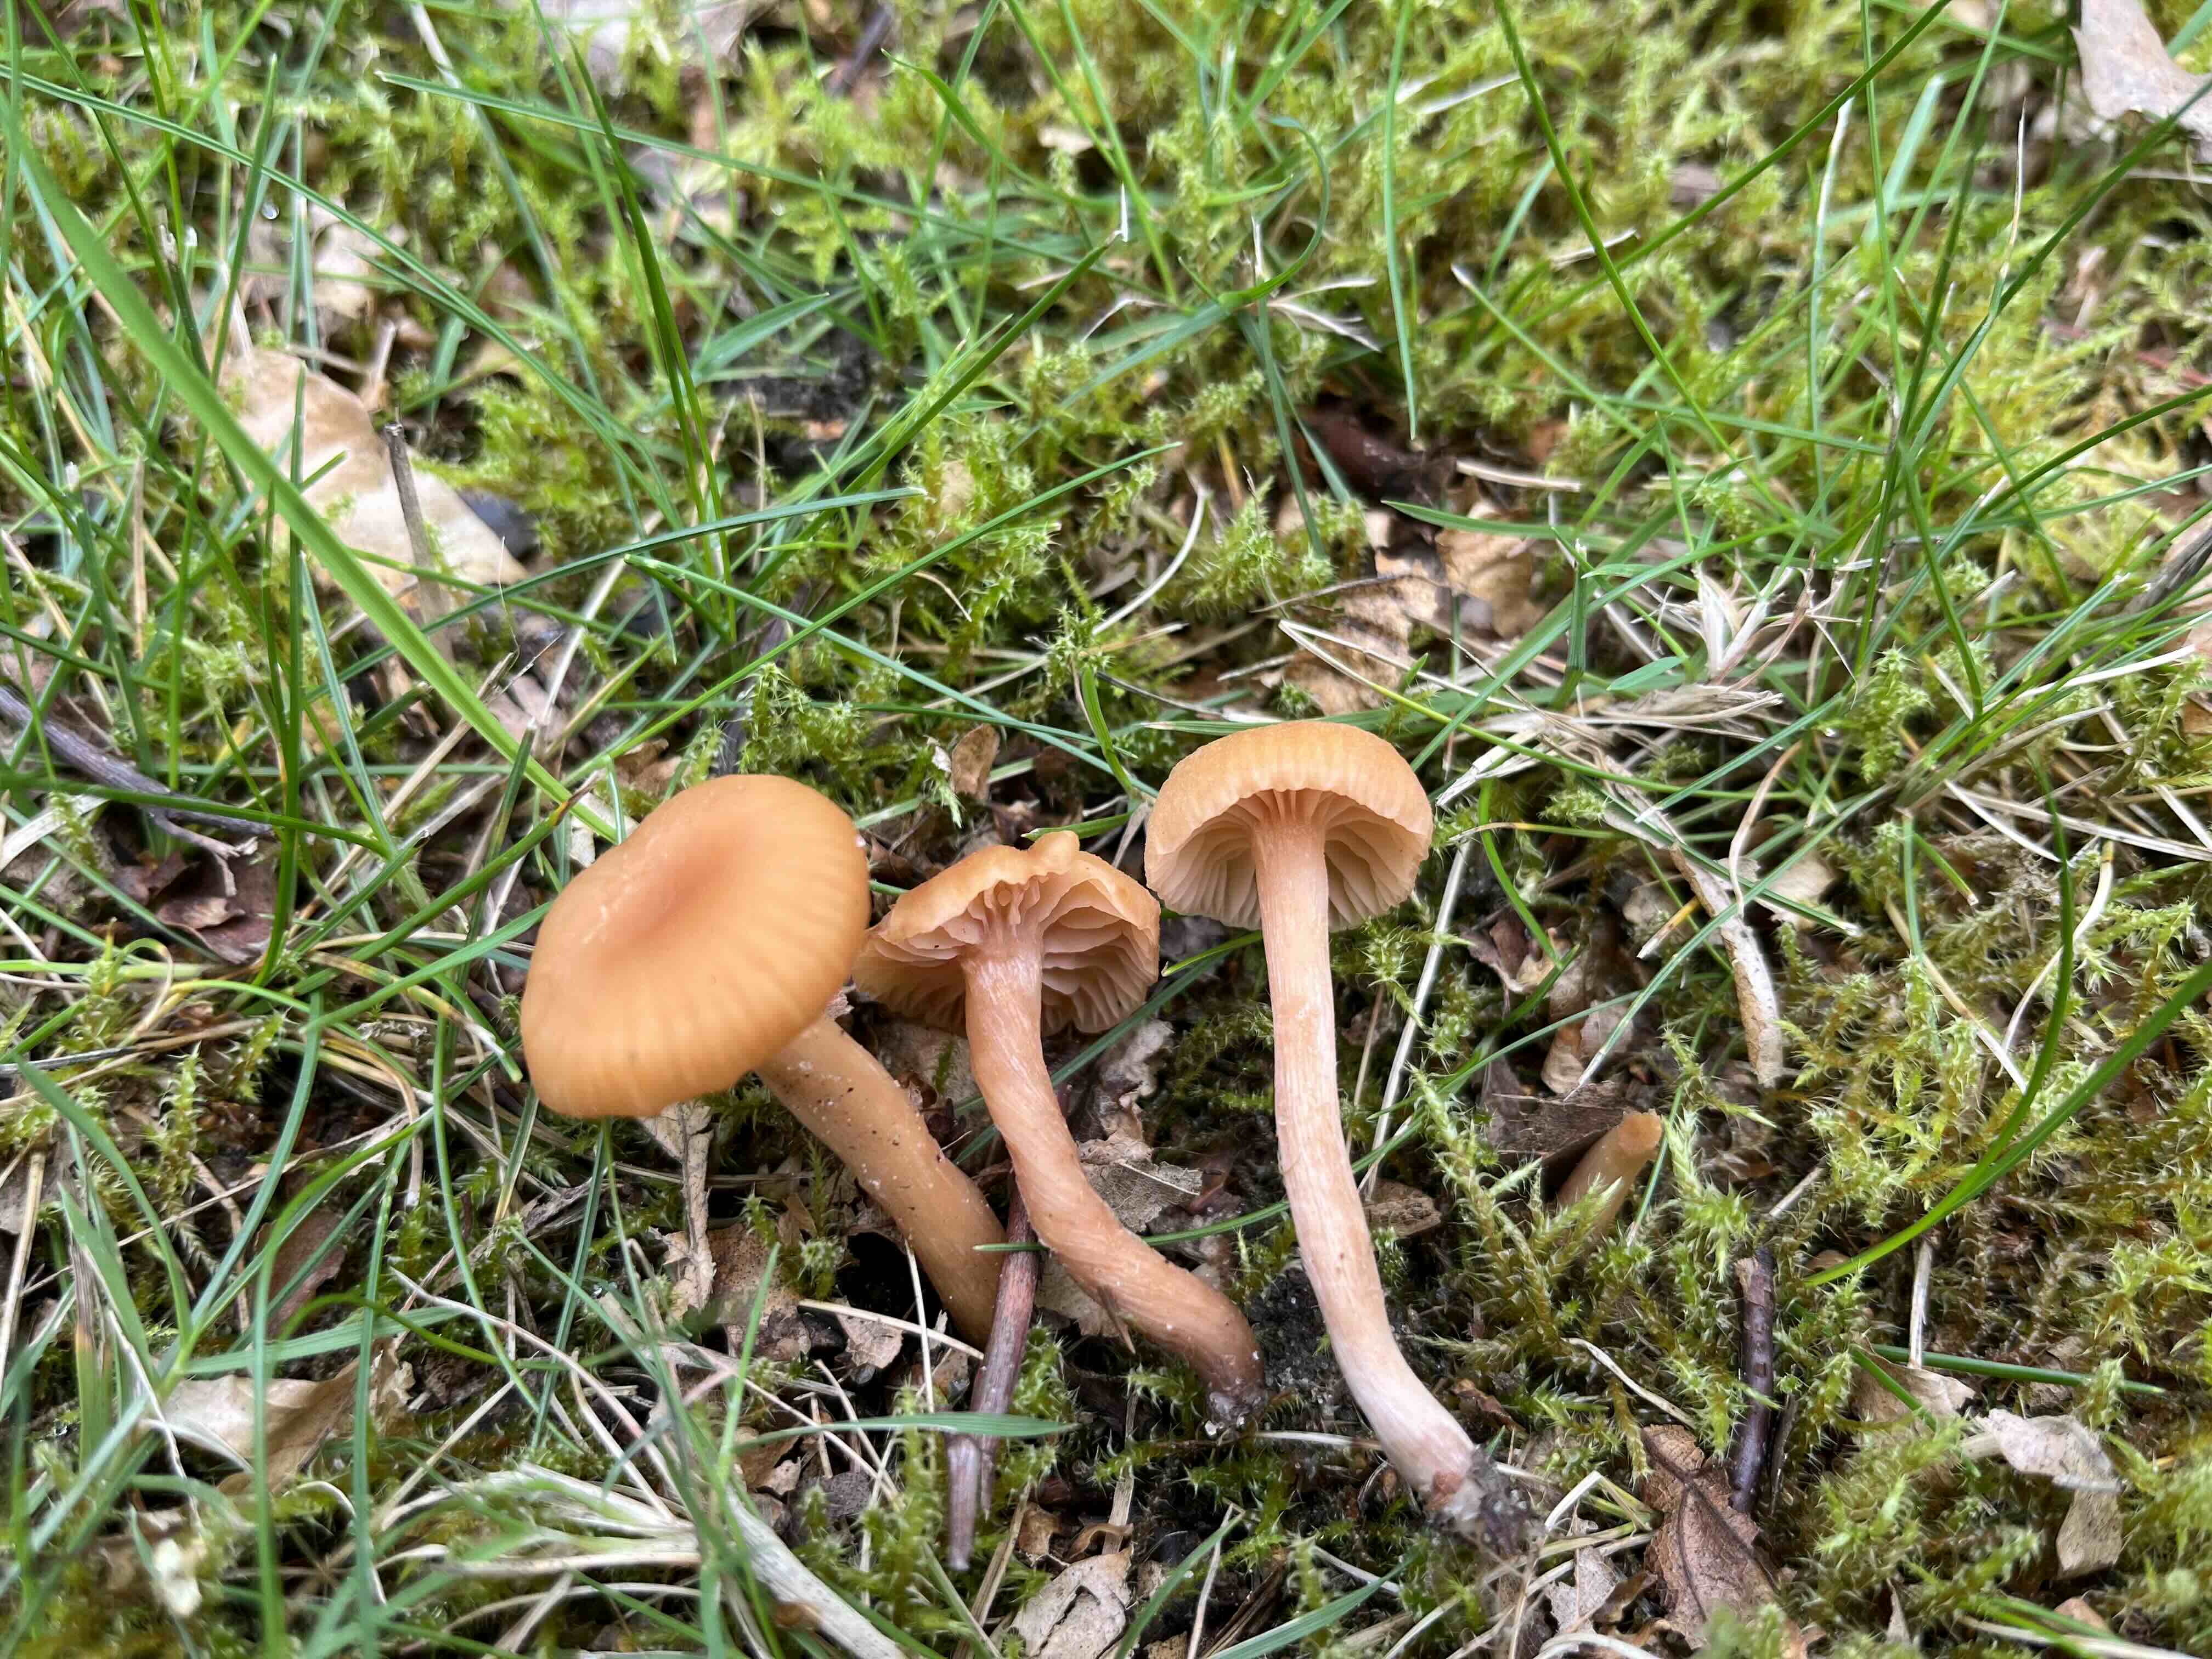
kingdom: Fungi
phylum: Basidiomycota
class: Agaricomycetes
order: Agaricales
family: Hydnangiaceae
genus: Laccaria
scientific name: Laccaria laccata
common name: rød ametysthat
